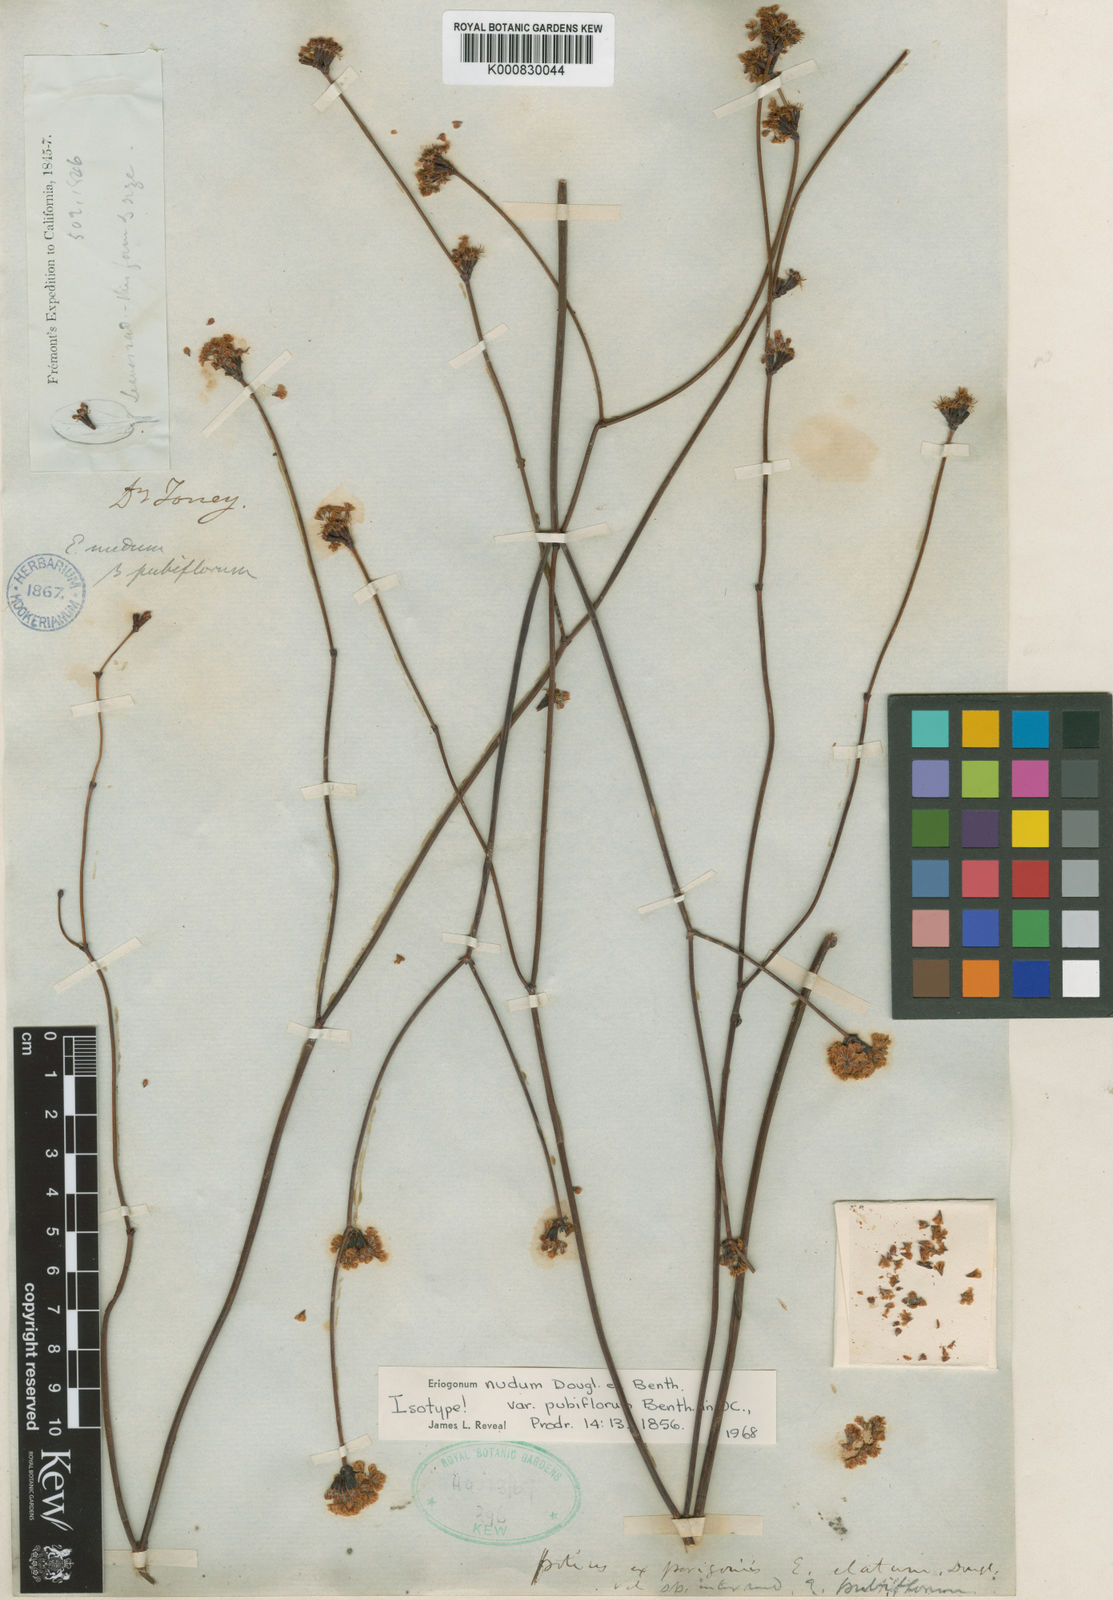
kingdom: Plantae
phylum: Tracheophyta
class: Magnoliopsida
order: Caryophyllales
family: Polygonaceae
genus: Eriogonum
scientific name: Eriogonum nudum
